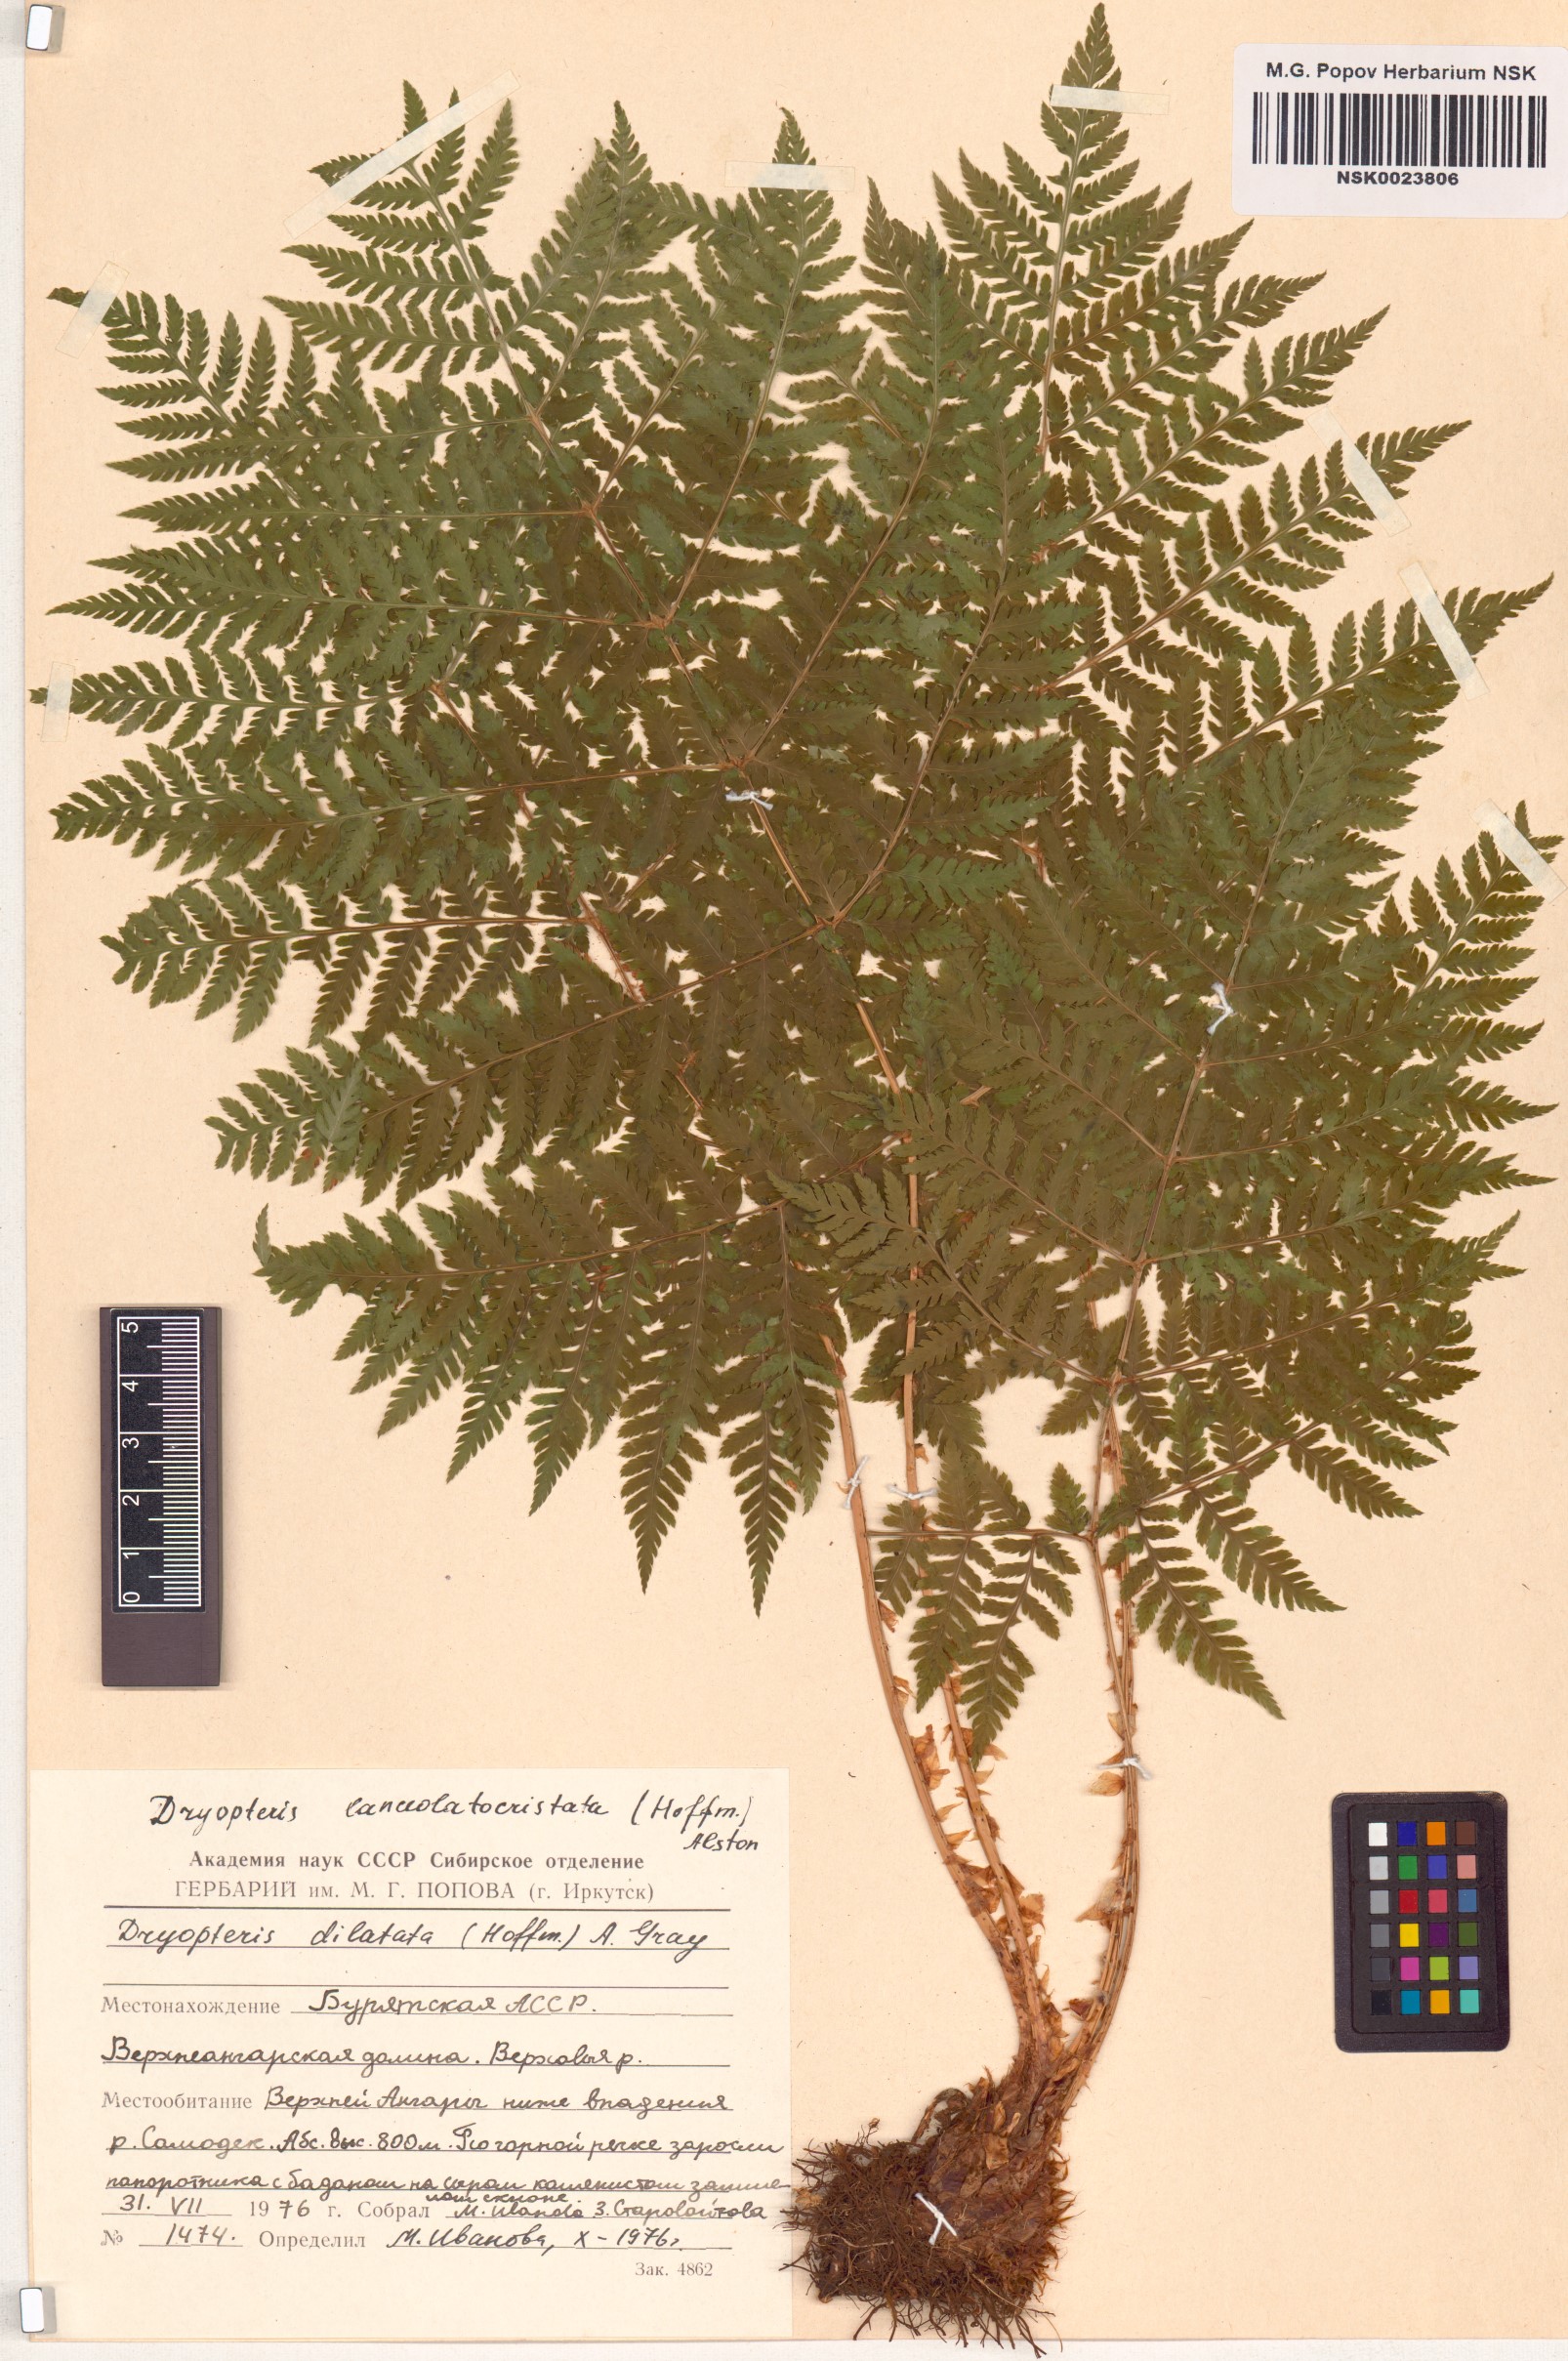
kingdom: Plantae
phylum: Tracheophyta
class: Polypodiopsida
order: Polypodiales
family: Dryopteridaceae
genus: Dryopteris
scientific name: Dryopteris dilatata
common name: Broad buckler-fern
